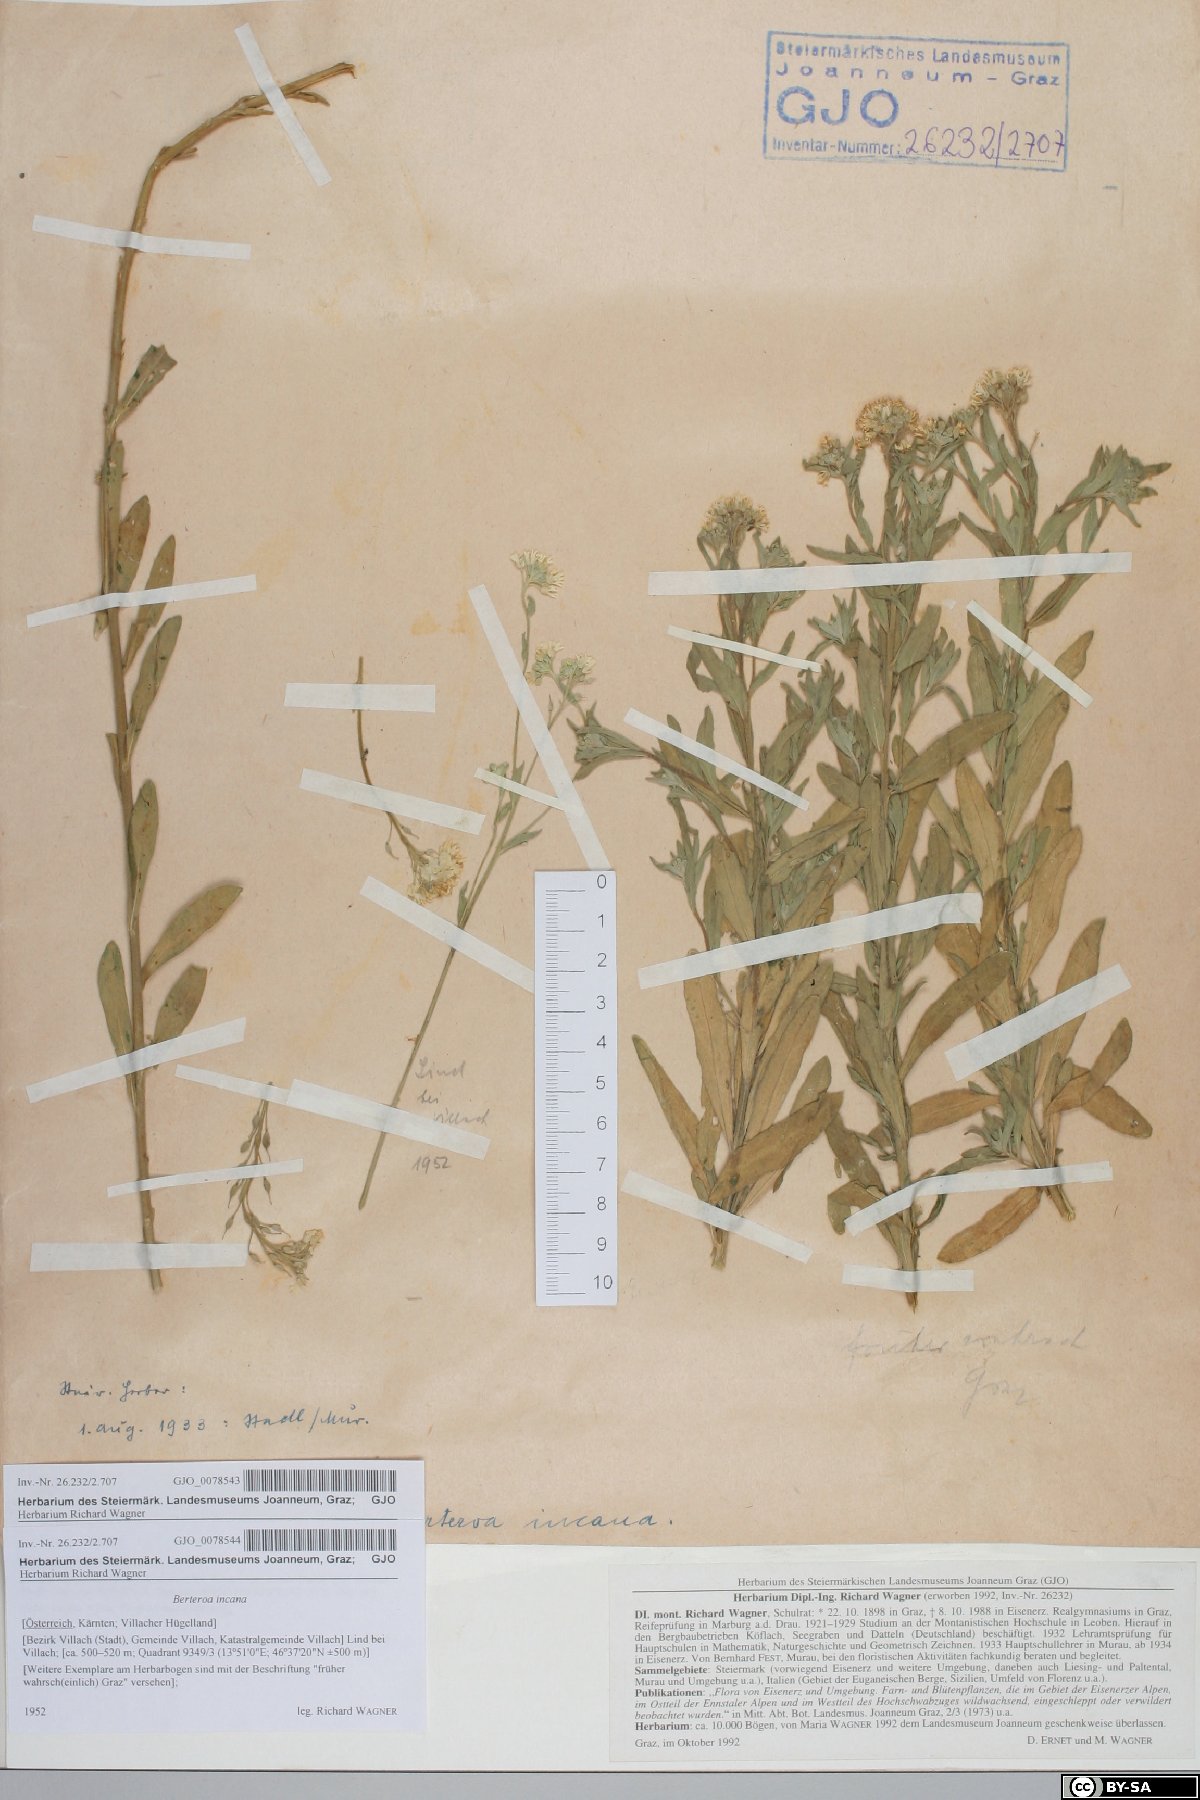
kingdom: Plantae
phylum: Tracheophyta
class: Magnoliopsida
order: Brassicales
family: Brassicaceae
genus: Berteroa
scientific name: Berteroa incana
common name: Hoary alison
